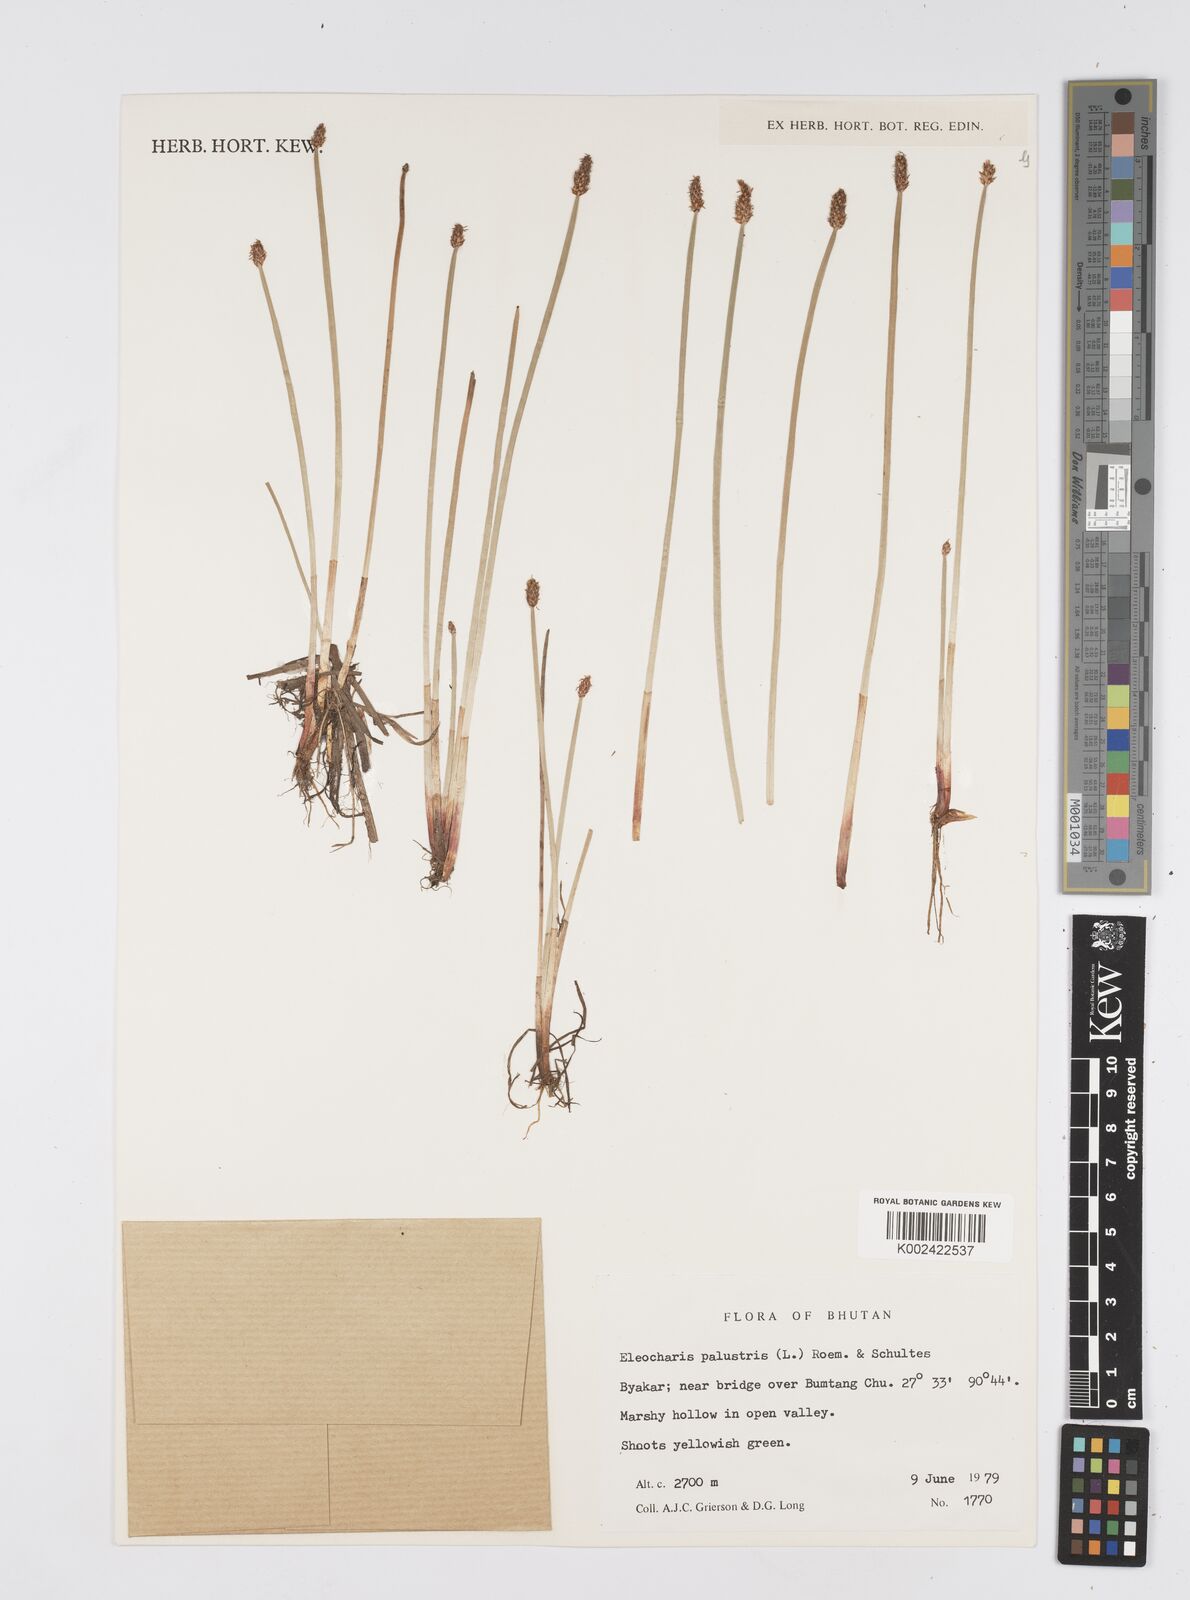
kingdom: Plantae
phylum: Tracheophyta
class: Liliopsida
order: Poales
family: Cyperaceae
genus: Eleocharis
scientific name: Eleocharis palustris
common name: Common spike-rush
